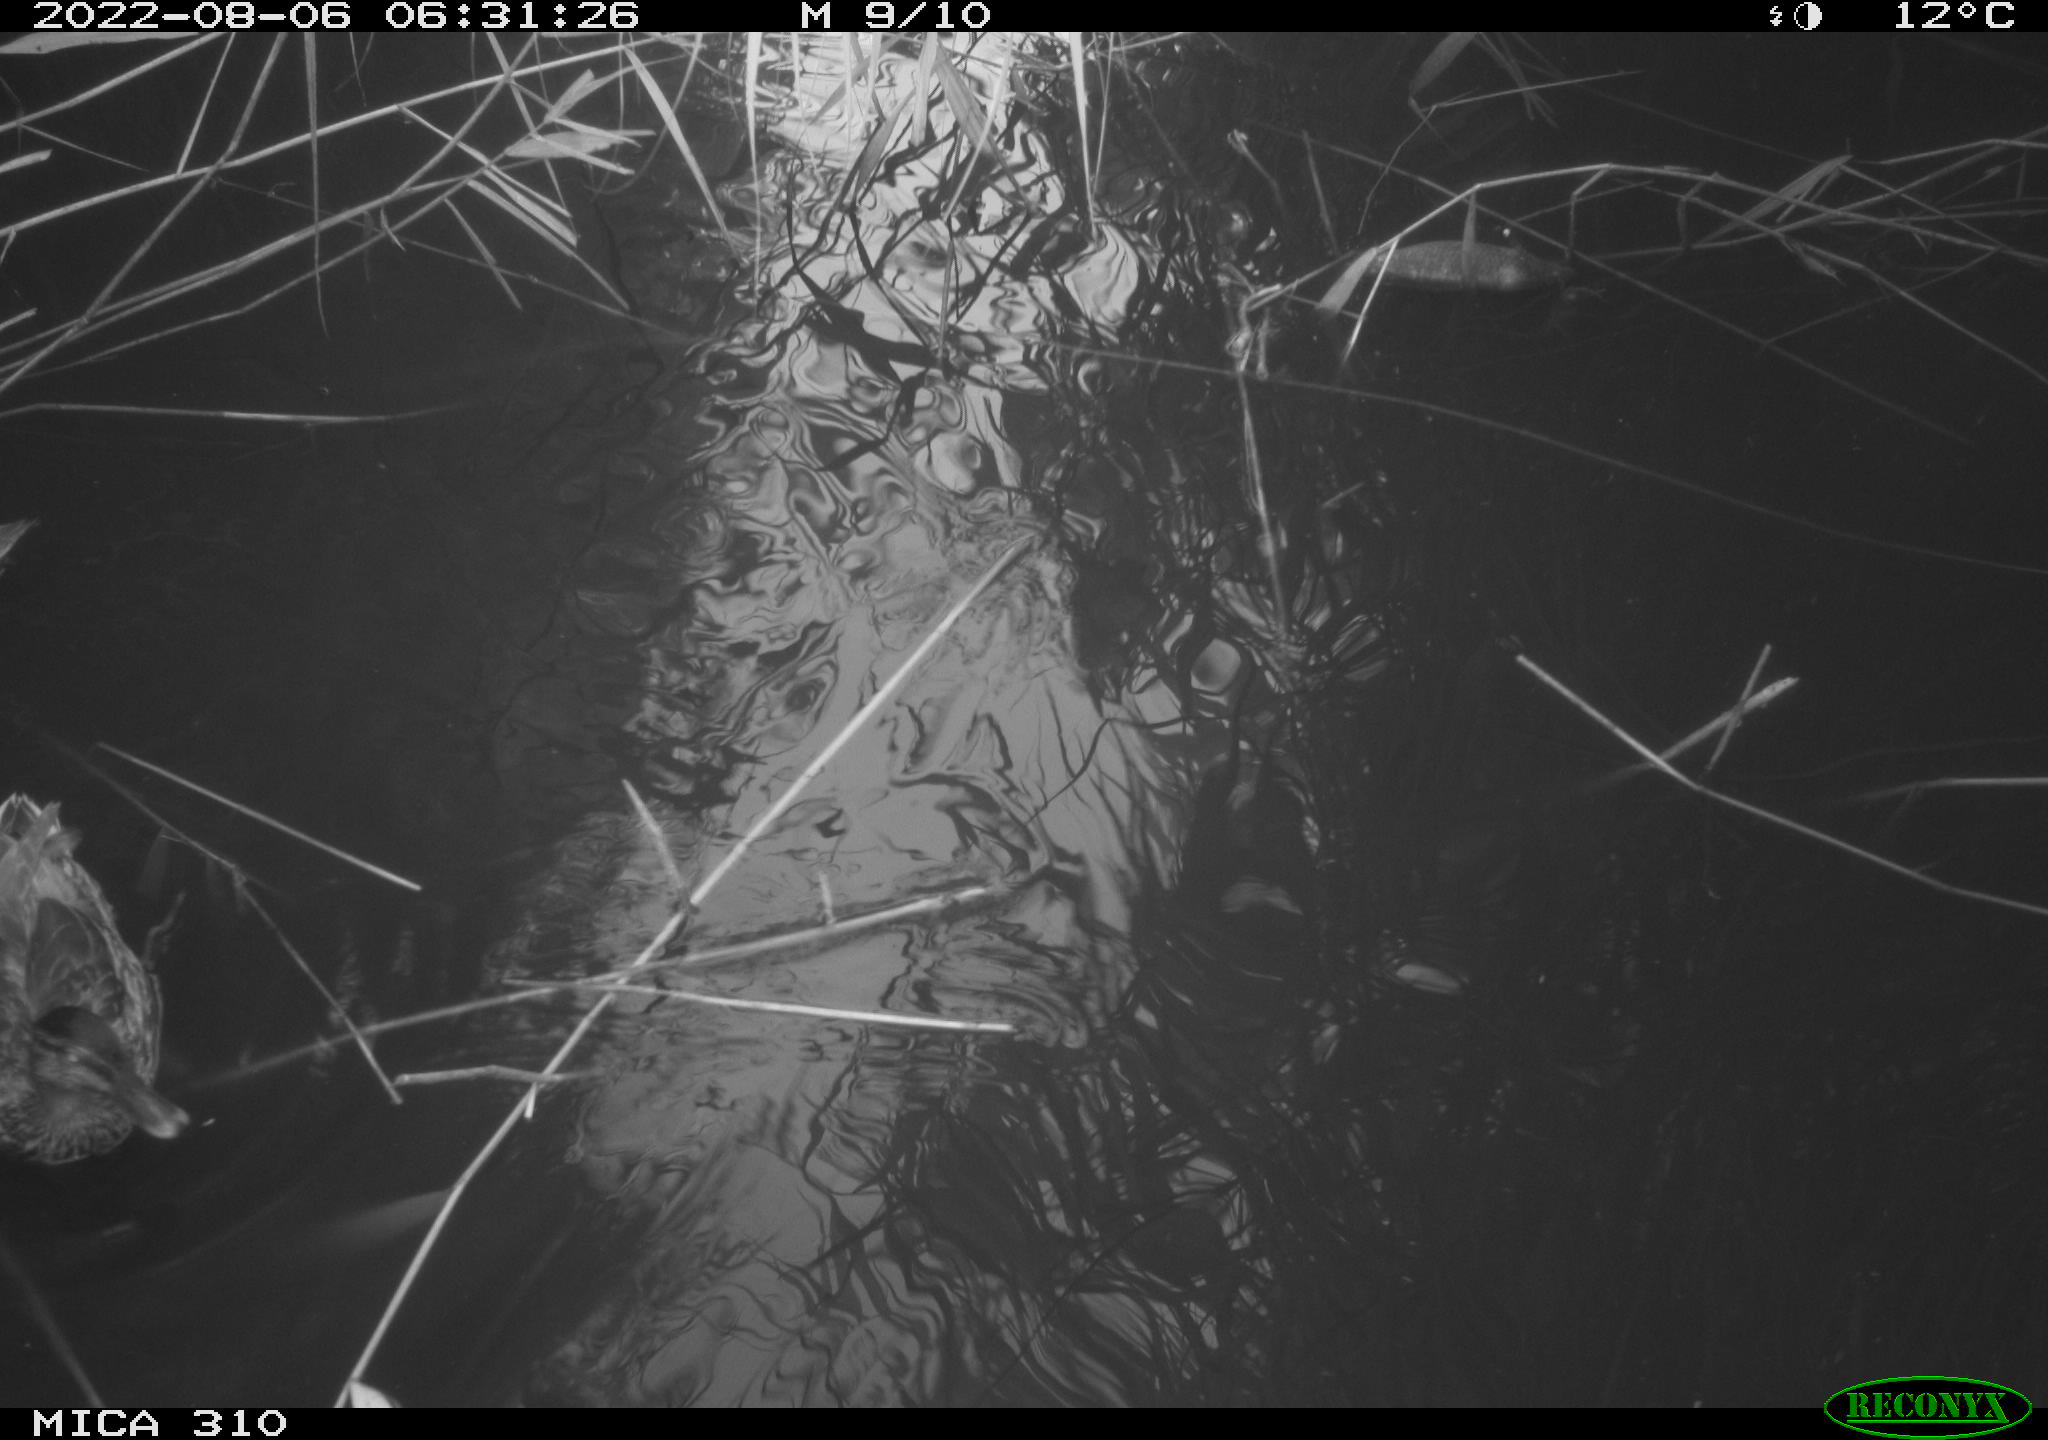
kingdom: Animalia
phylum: Chordata
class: Aves
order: Anseriformes
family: Anatidae
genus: Anas
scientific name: Anas platyrhynchos
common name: Mallard
